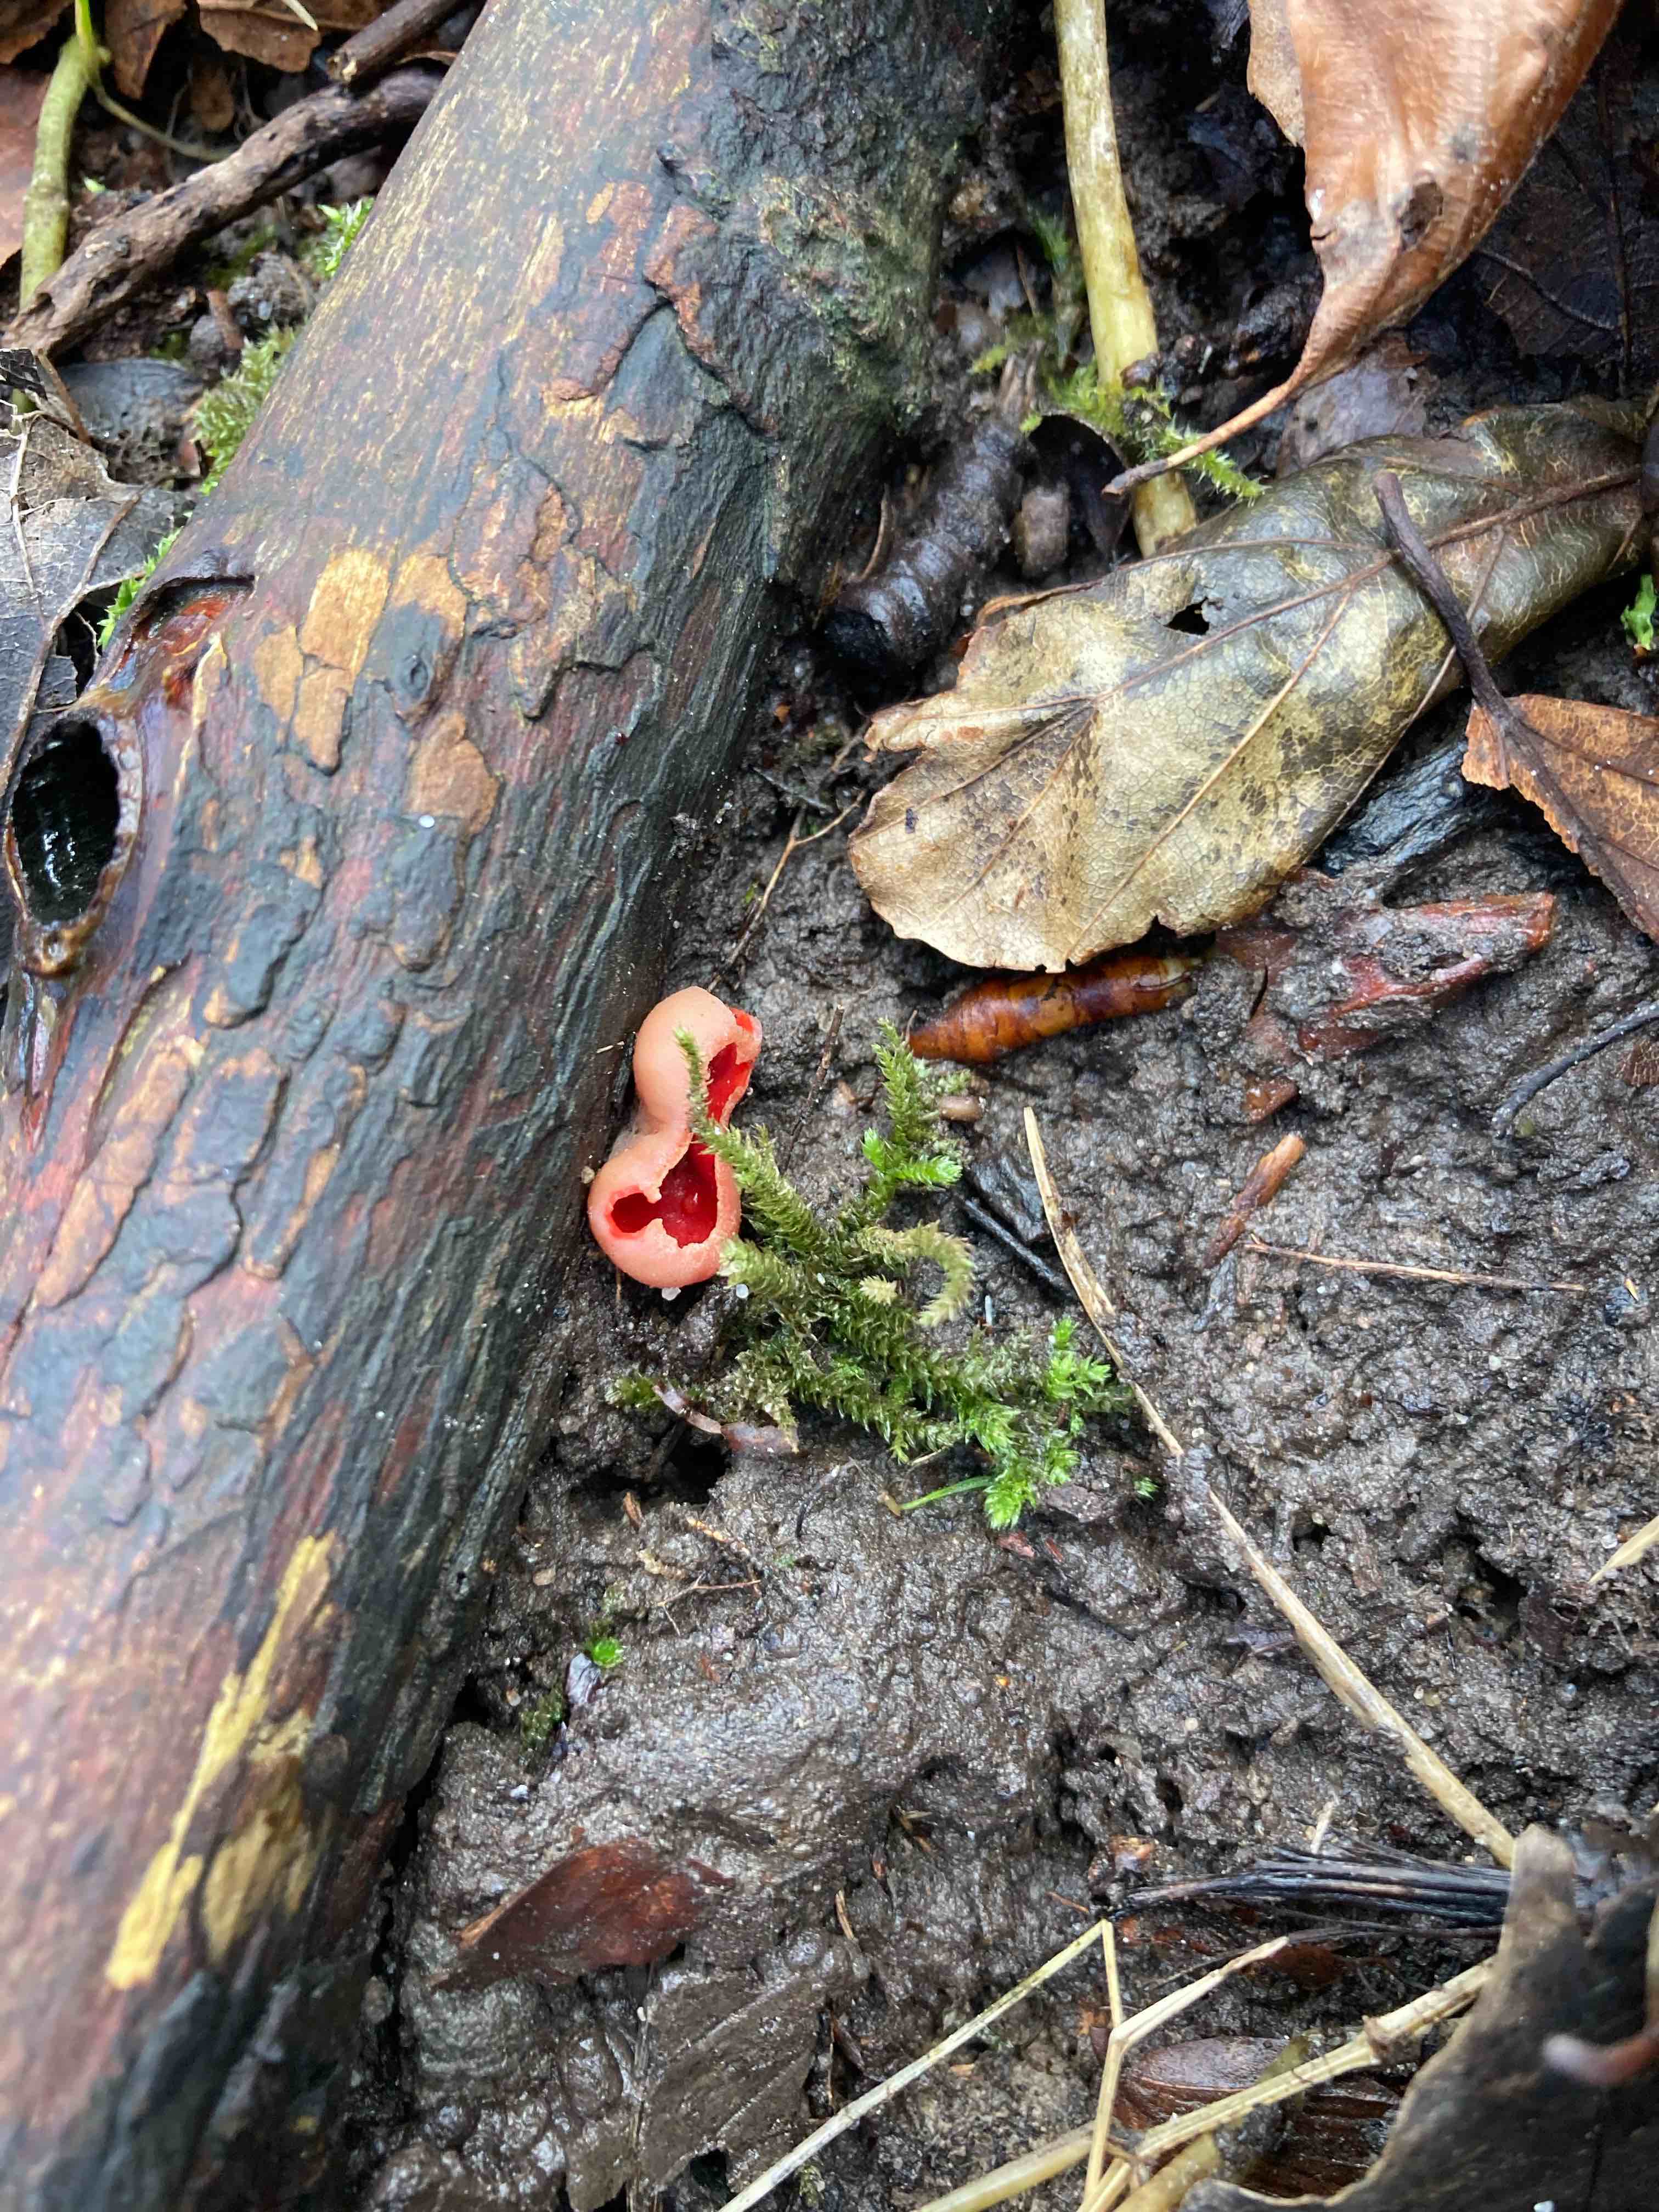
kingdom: Fungi
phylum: Ascomycota
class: Pezizomycetes
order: Pezizales
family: Sarcoscyphaceae
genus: Sarcoscypha
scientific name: Sarcoscypha austriaca
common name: krølhåret pragtbæger
